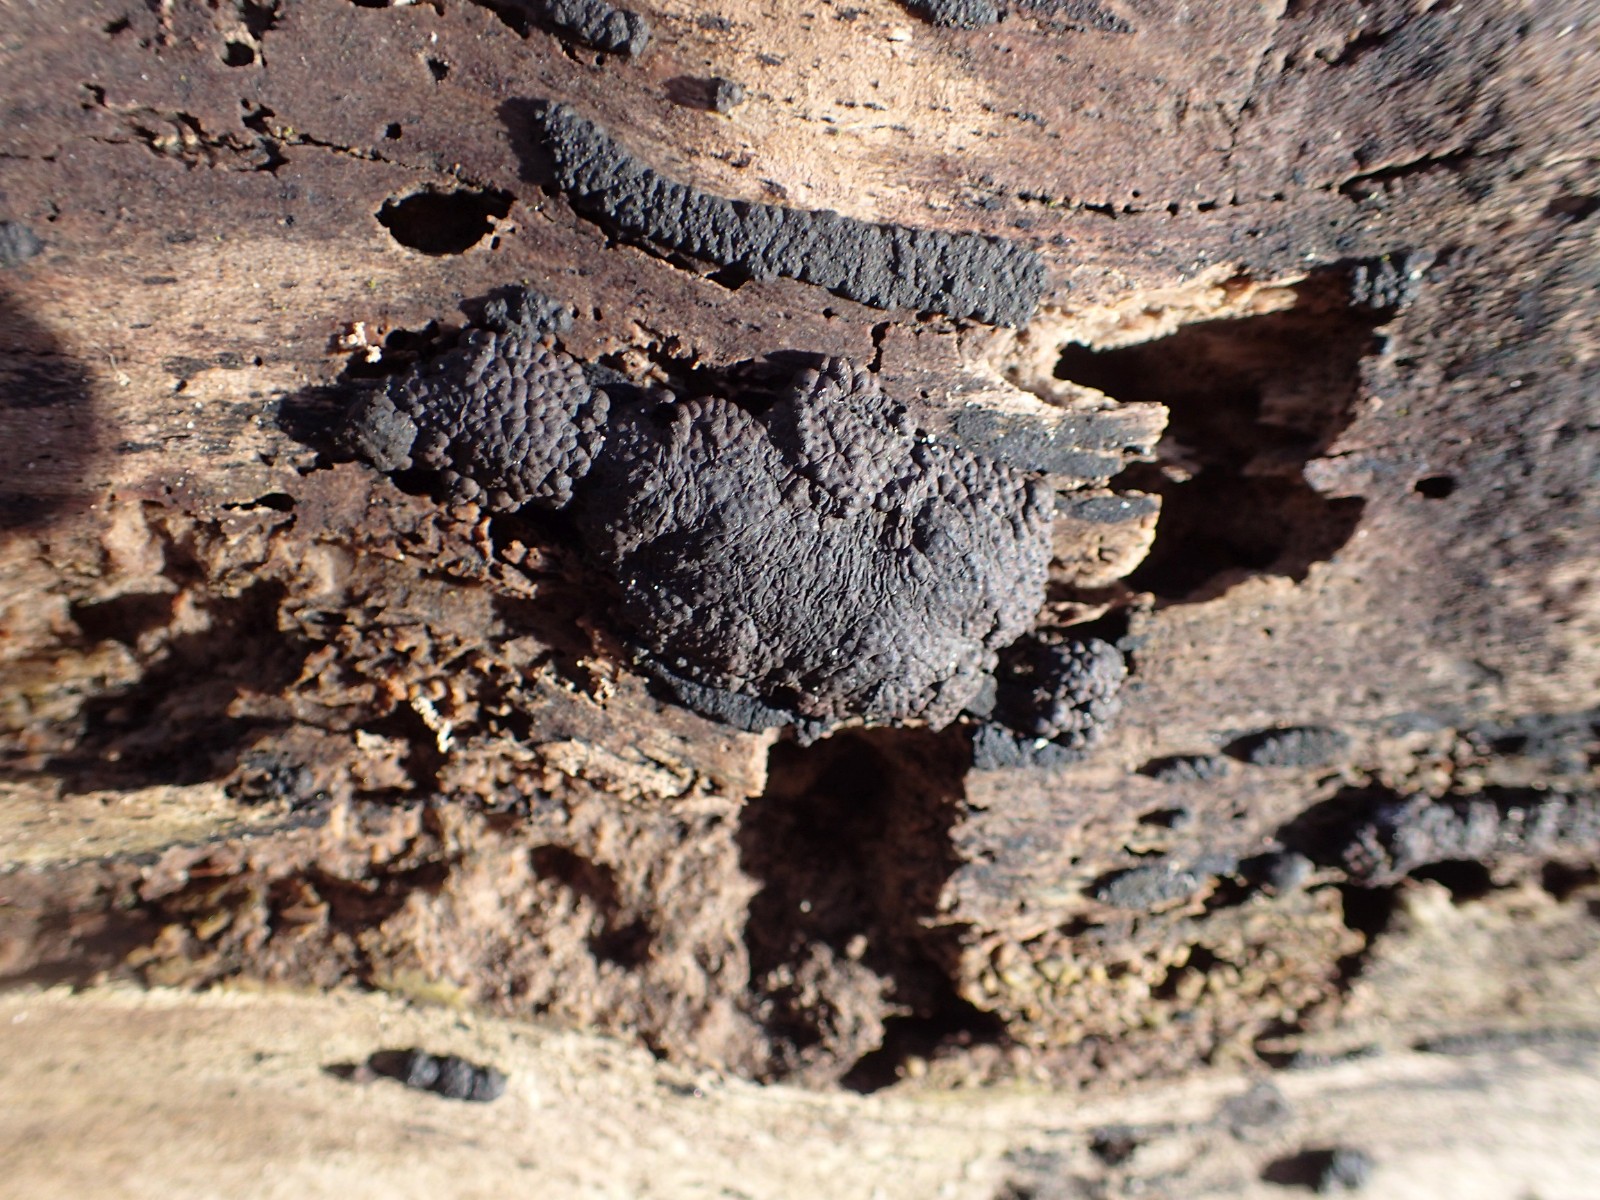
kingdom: Fungi
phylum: Ascomycota
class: Sordariomycetes
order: Xylariales
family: Hypoxylaceae
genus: Jackrogersella
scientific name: Jackrogersella cohaerens
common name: sammenflydende kulbær
